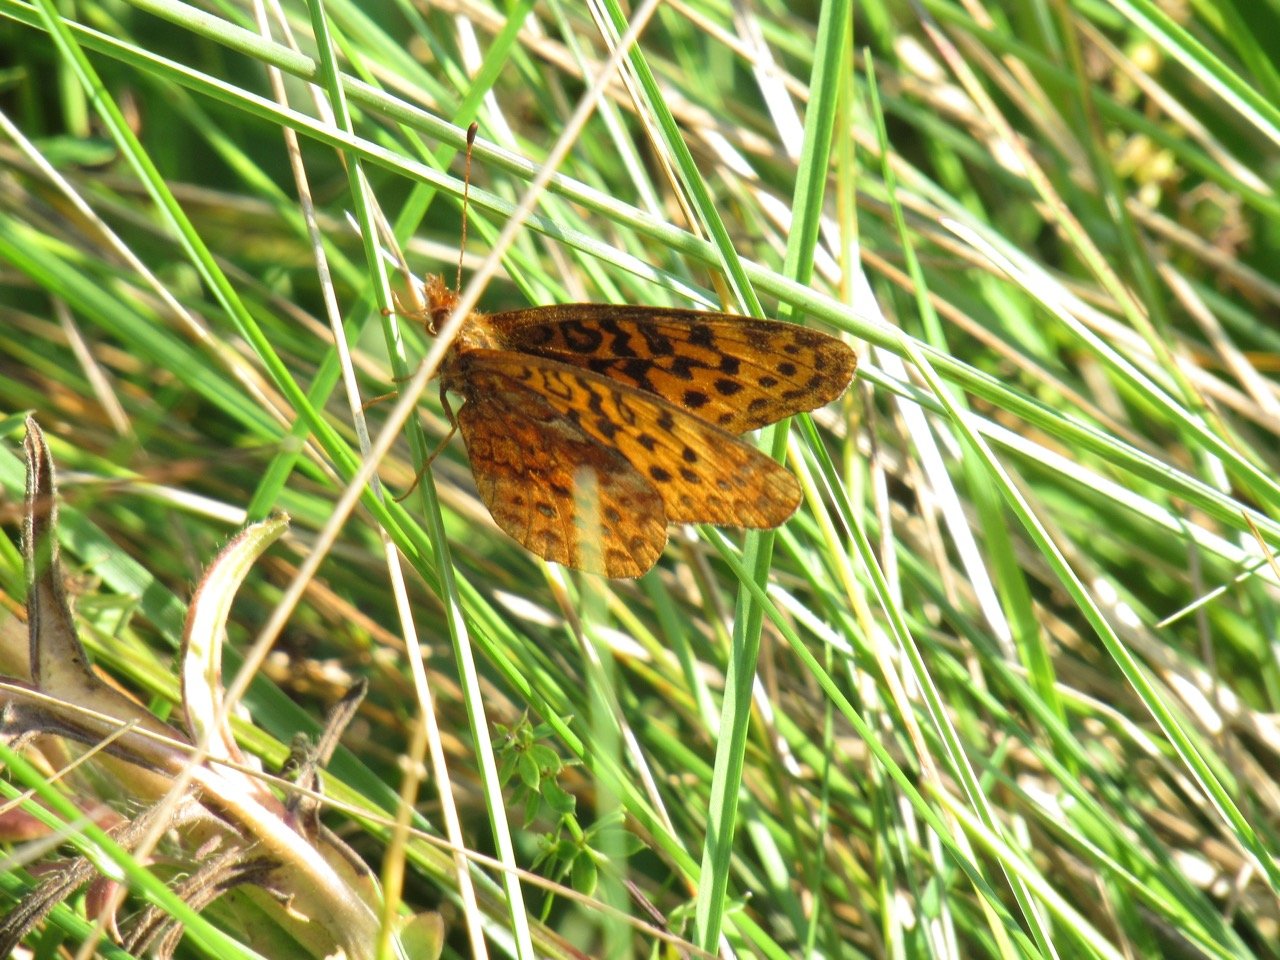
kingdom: Animalia
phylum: Arthropoda
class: Insecta
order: Lepidoptera
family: Nymphalidae
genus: Clossiana
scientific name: Clossiana toddi
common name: Meadow Fritillary
